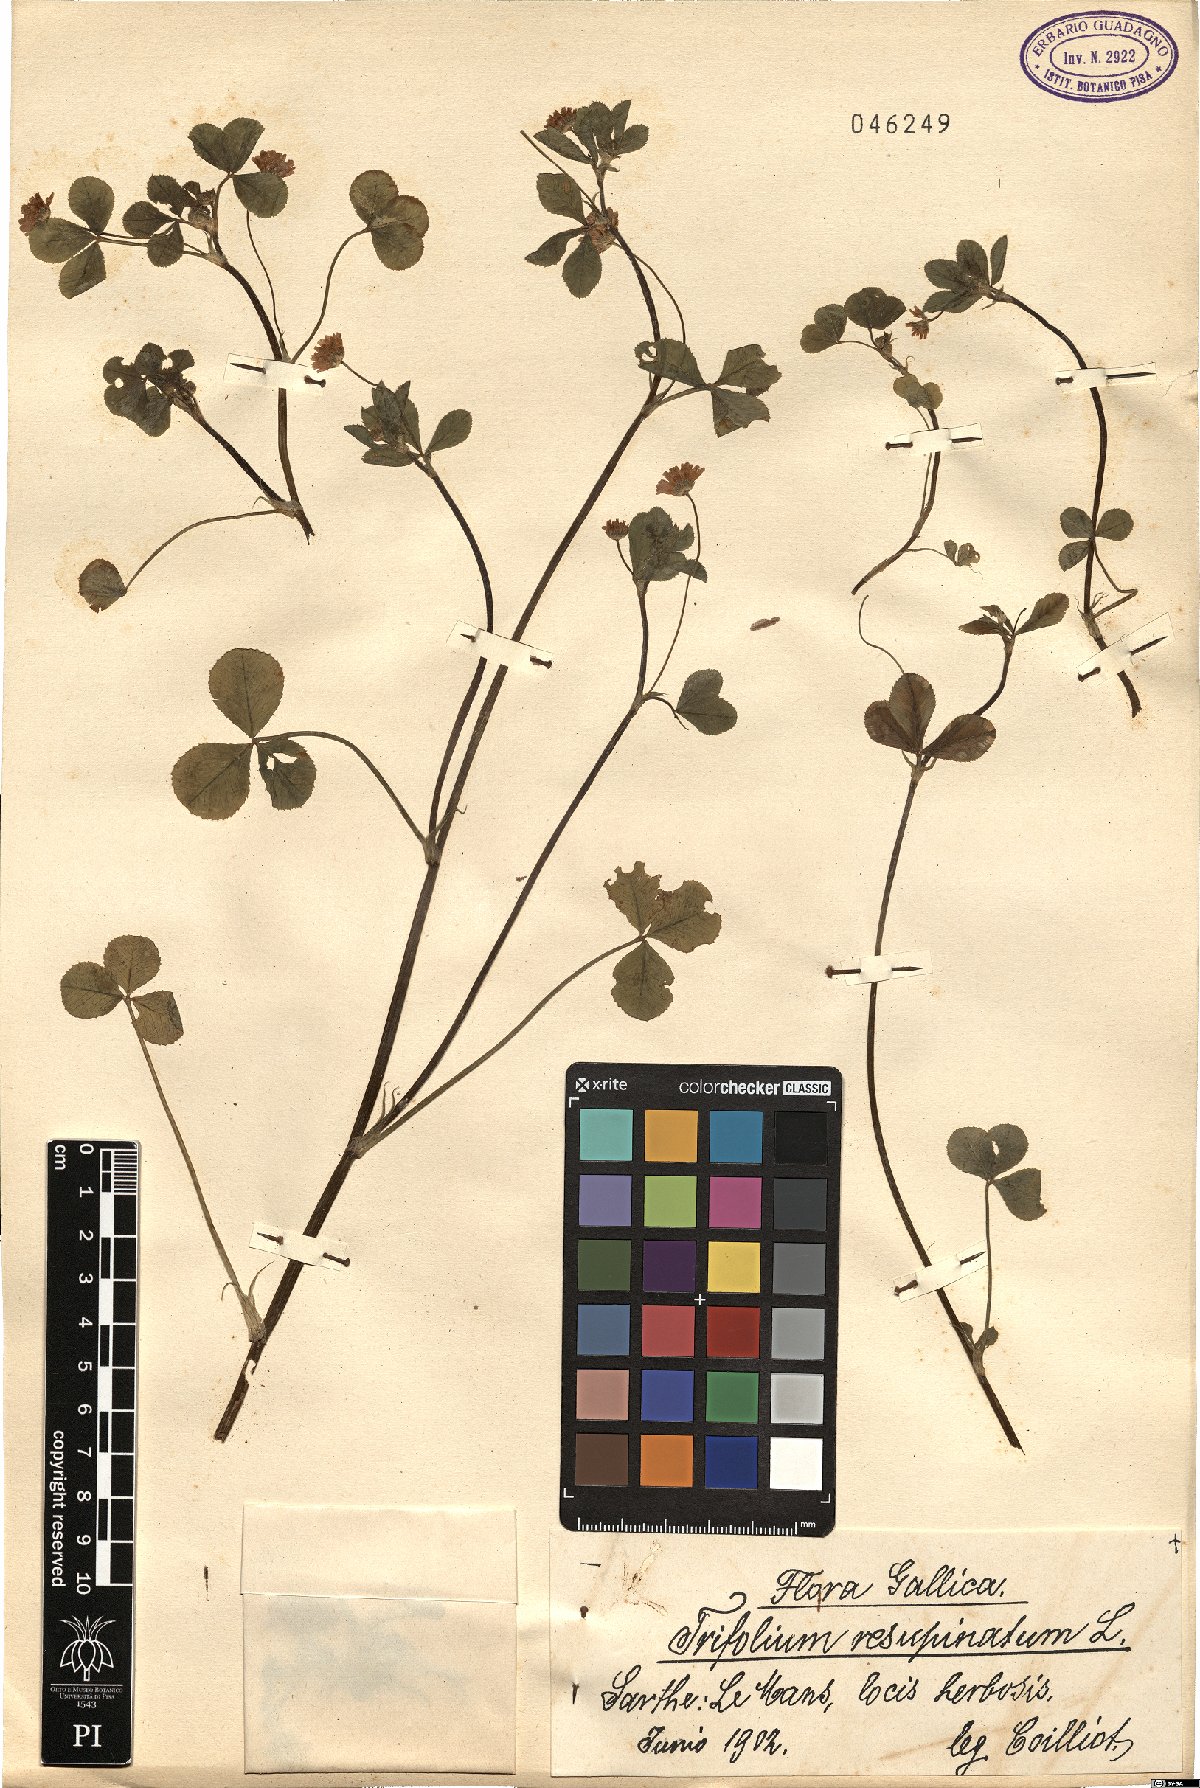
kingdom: Plantae
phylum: Tracheophyta
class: Magnoliopsida
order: Fabales
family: Fabaceae
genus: Trifolium
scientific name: Trifolium resupinatum
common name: Reversed clover
